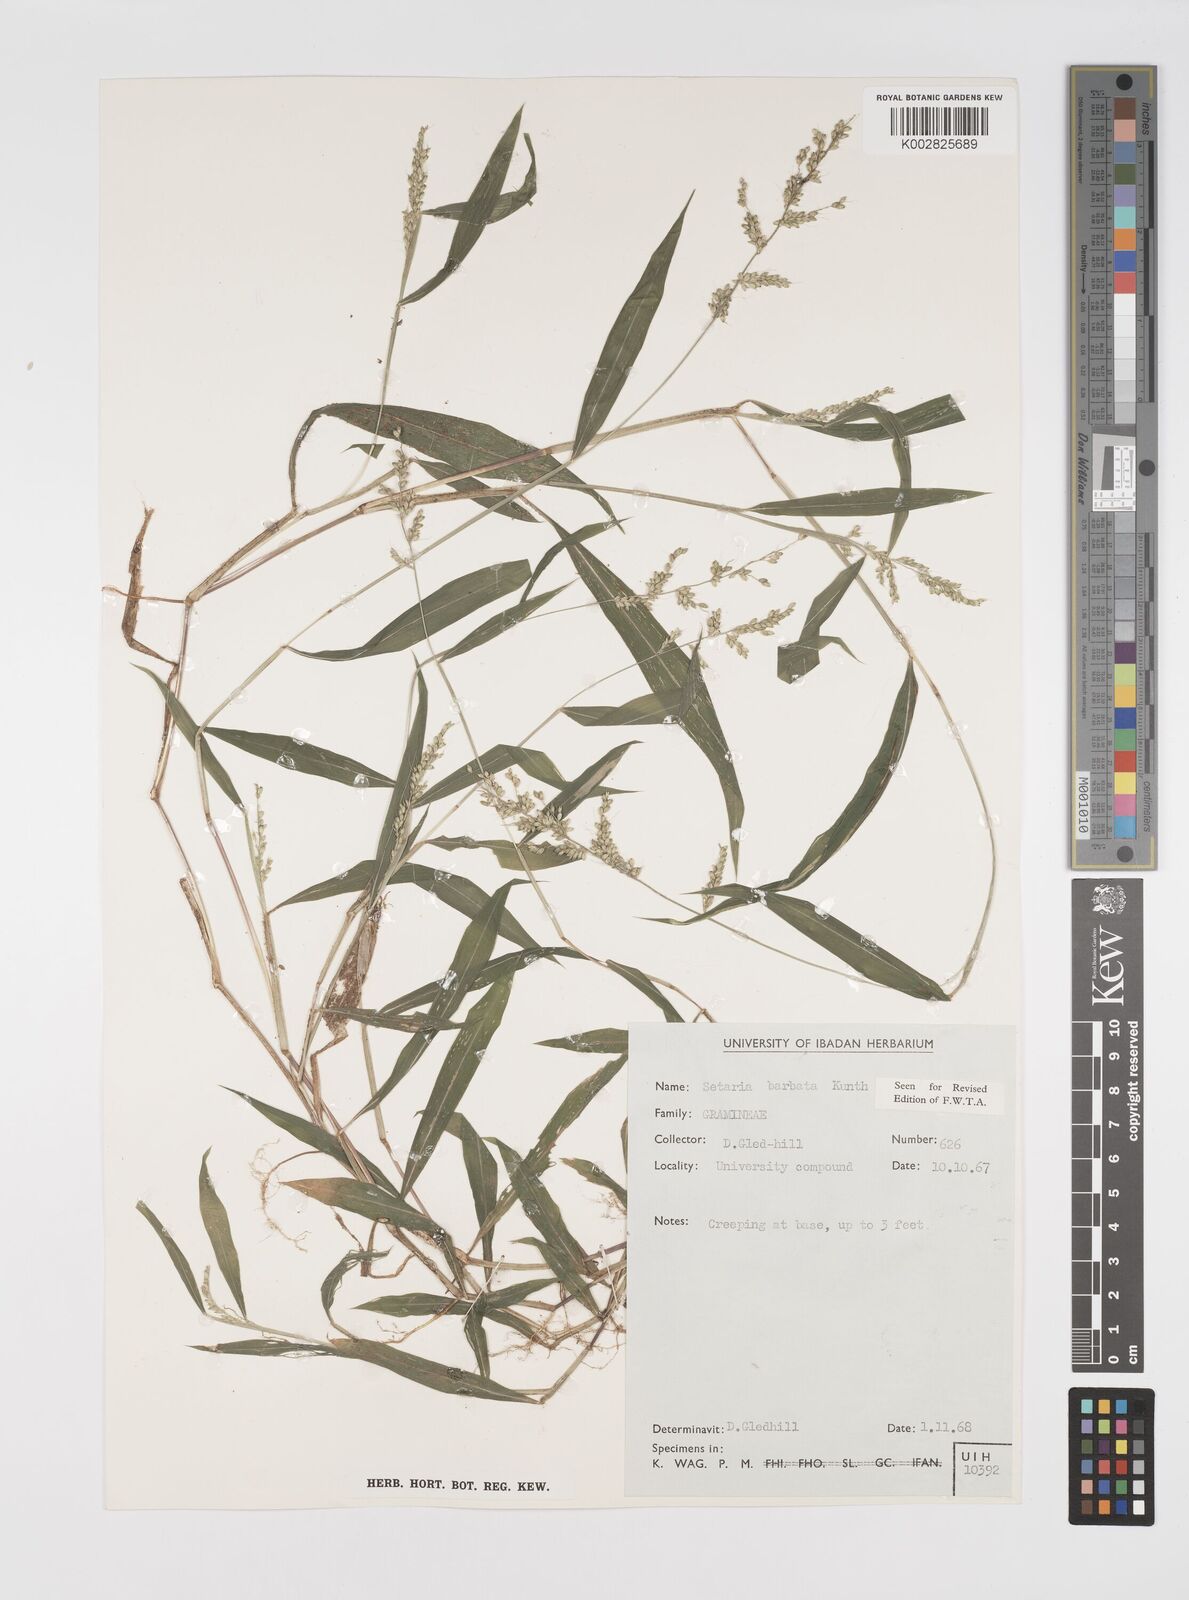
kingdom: Plantae
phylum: Tracheophyta
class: Liliopsida
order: Poales
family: Poaceae
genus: Setaria
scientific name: Setaria barbata
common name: East indian bristlegrass
